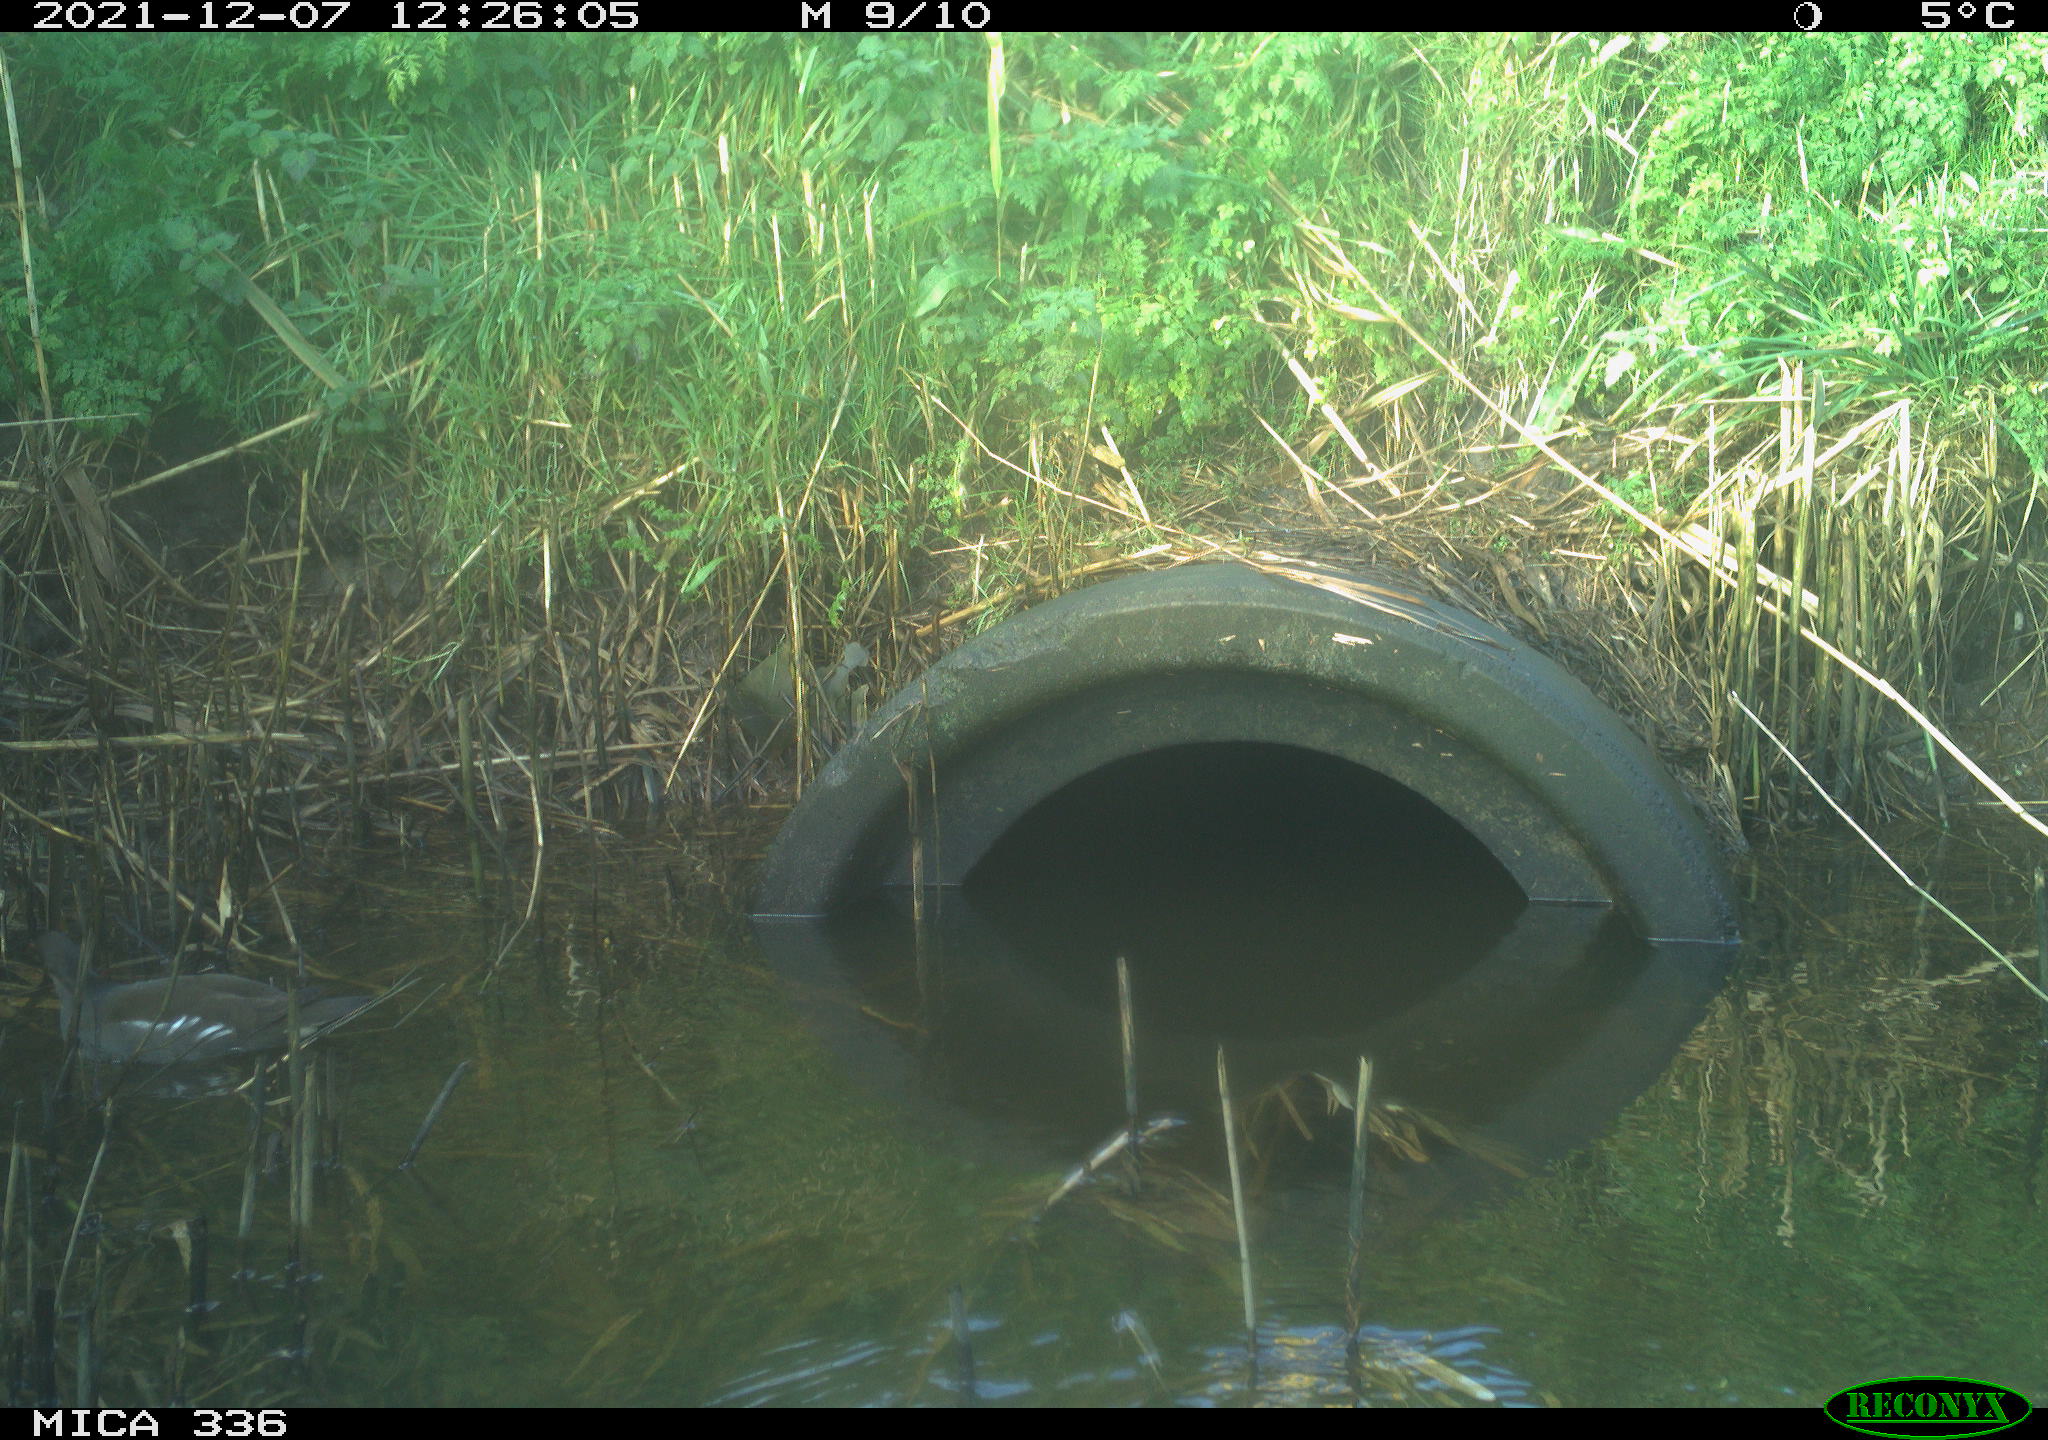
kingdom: Animalia
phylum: Chordata
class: Aves
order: Gruiformes
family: Rallidae
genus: Gallinula
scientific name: Gallinula chloropus
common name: Common moorhen
